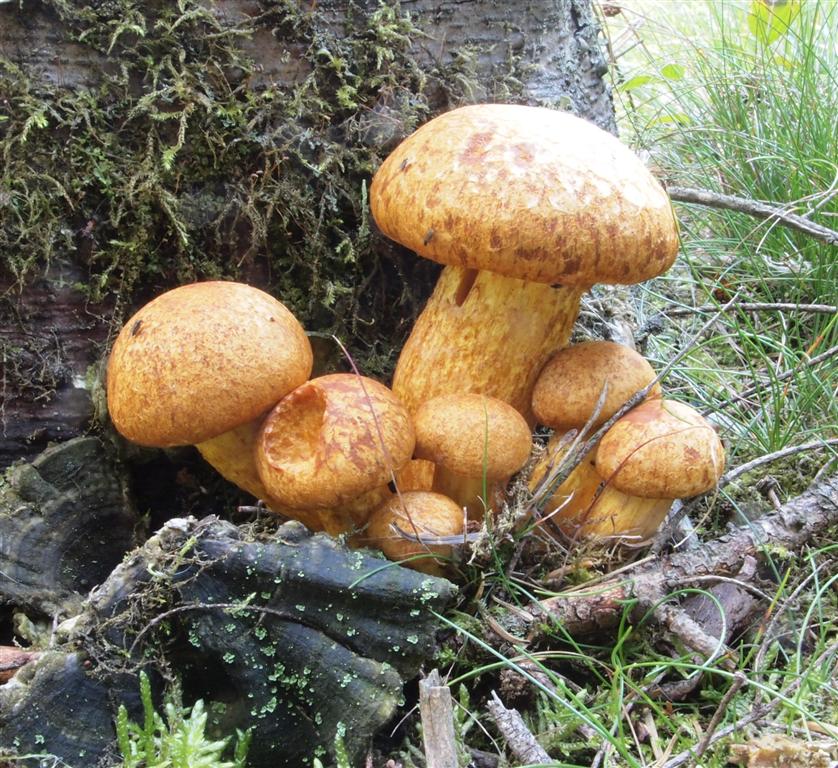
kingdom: Fungi
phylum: Basidiomycota
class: Agaricomycetes
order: Agaricales
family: Hymenogastraceae
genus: Gymnopilus
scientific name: Gymnopilus spectabilis
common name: fibret flammehat
